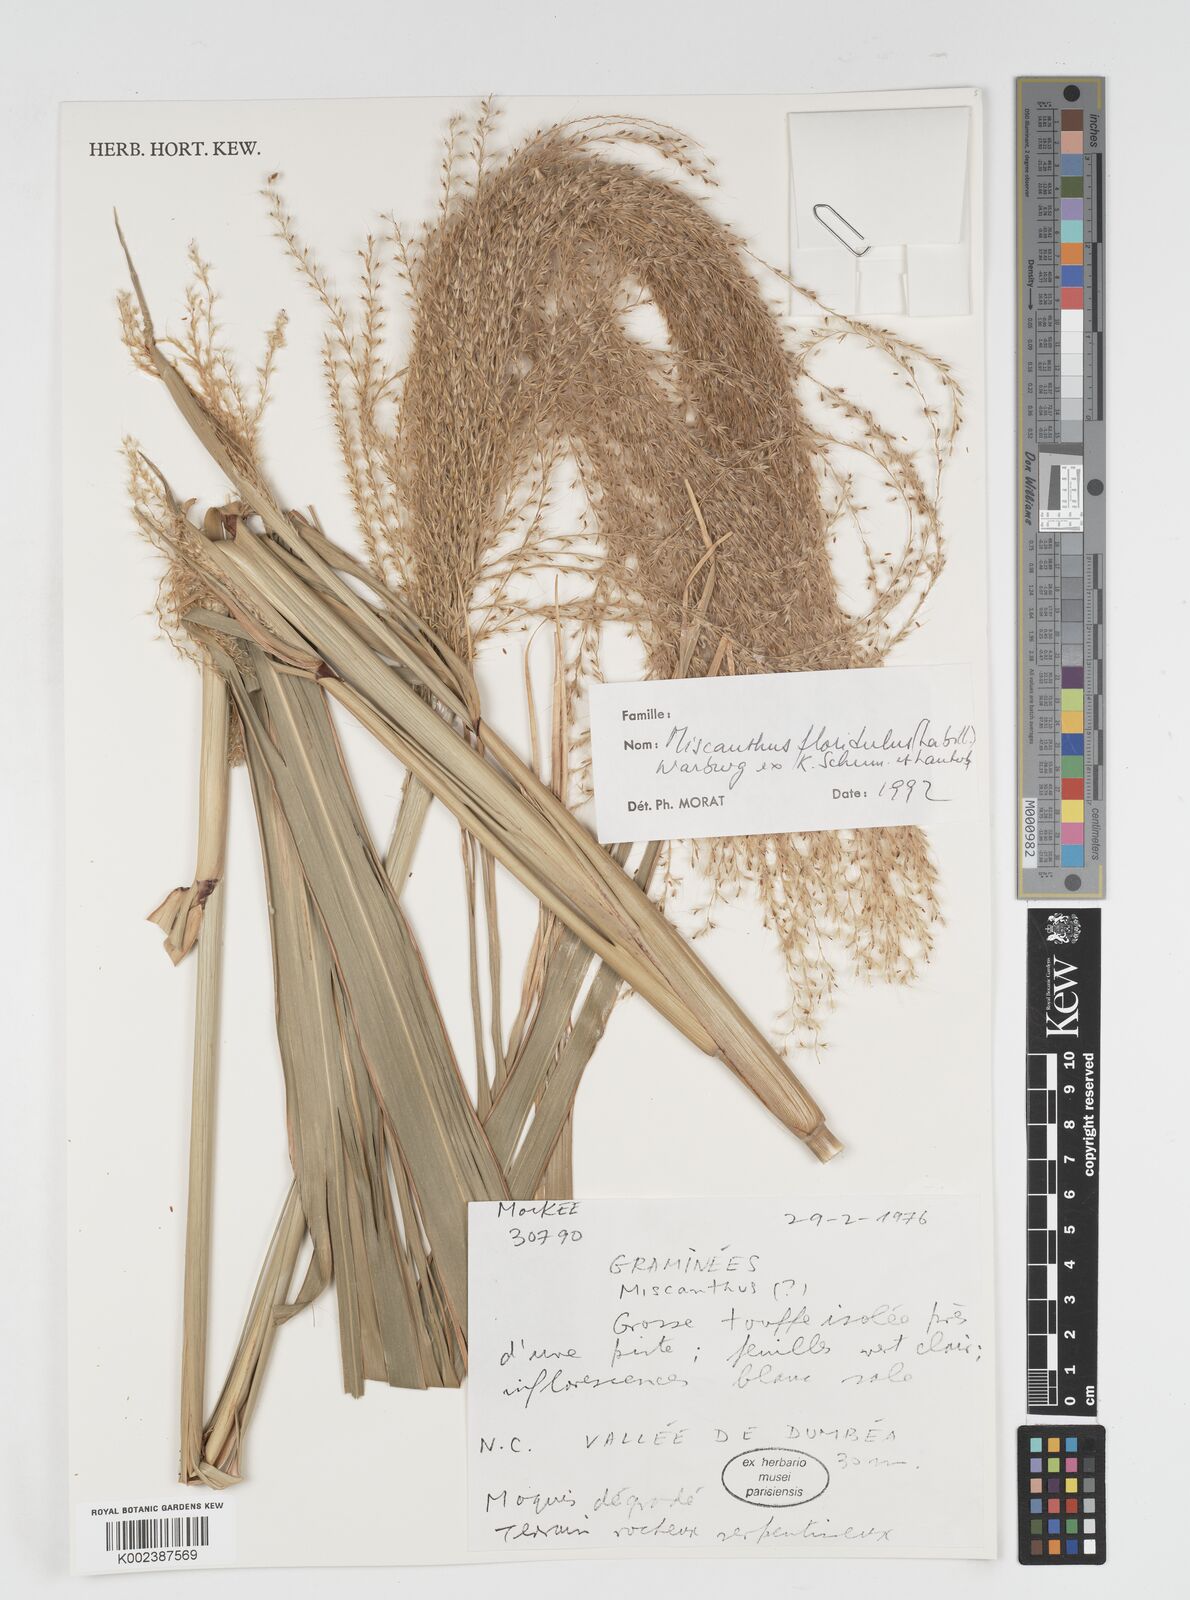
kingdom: Plantae
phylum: Tracheophyta
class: Liliopsida
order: Poales
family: Poaceae
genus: Miscanthus
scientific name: Miscanthus floridulus
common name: Pacific island silvergrass
